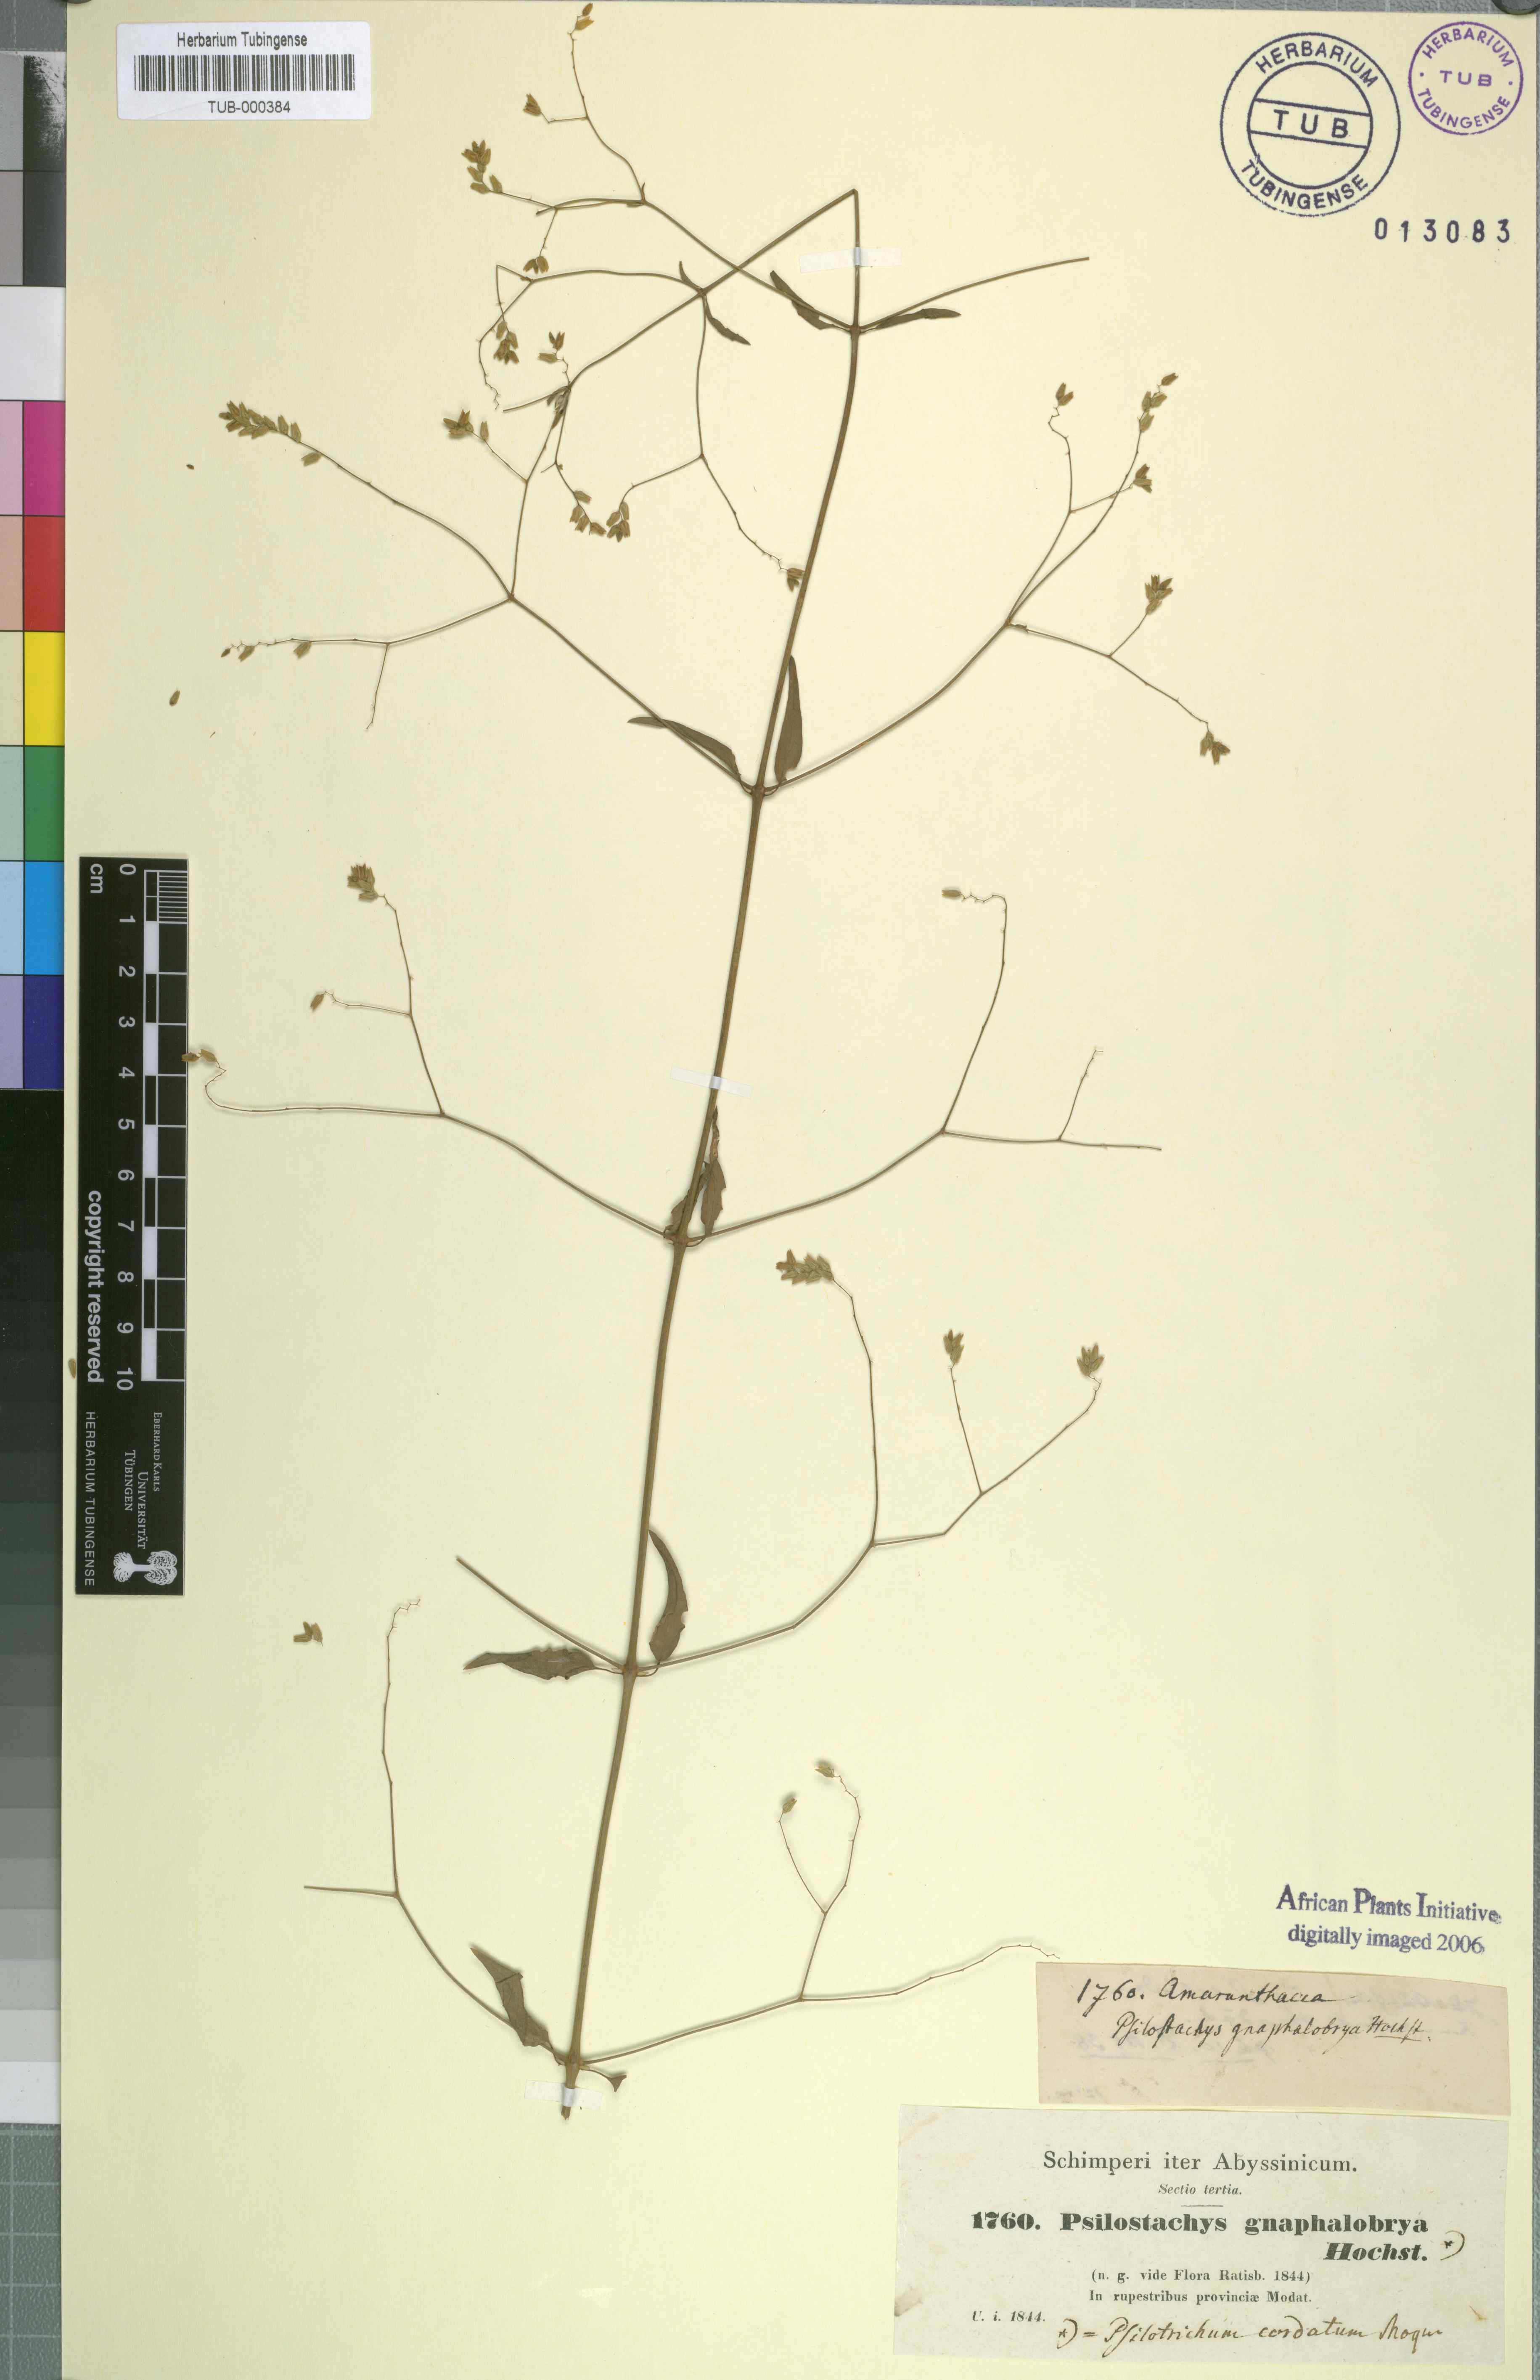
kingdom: Plantae
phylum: Tracheophyta
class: Magnoliopsida
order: Caryophyllales
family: Amaranthaceae
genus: Psilotrichum
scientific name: Psilotrichum gnaphalobryum
